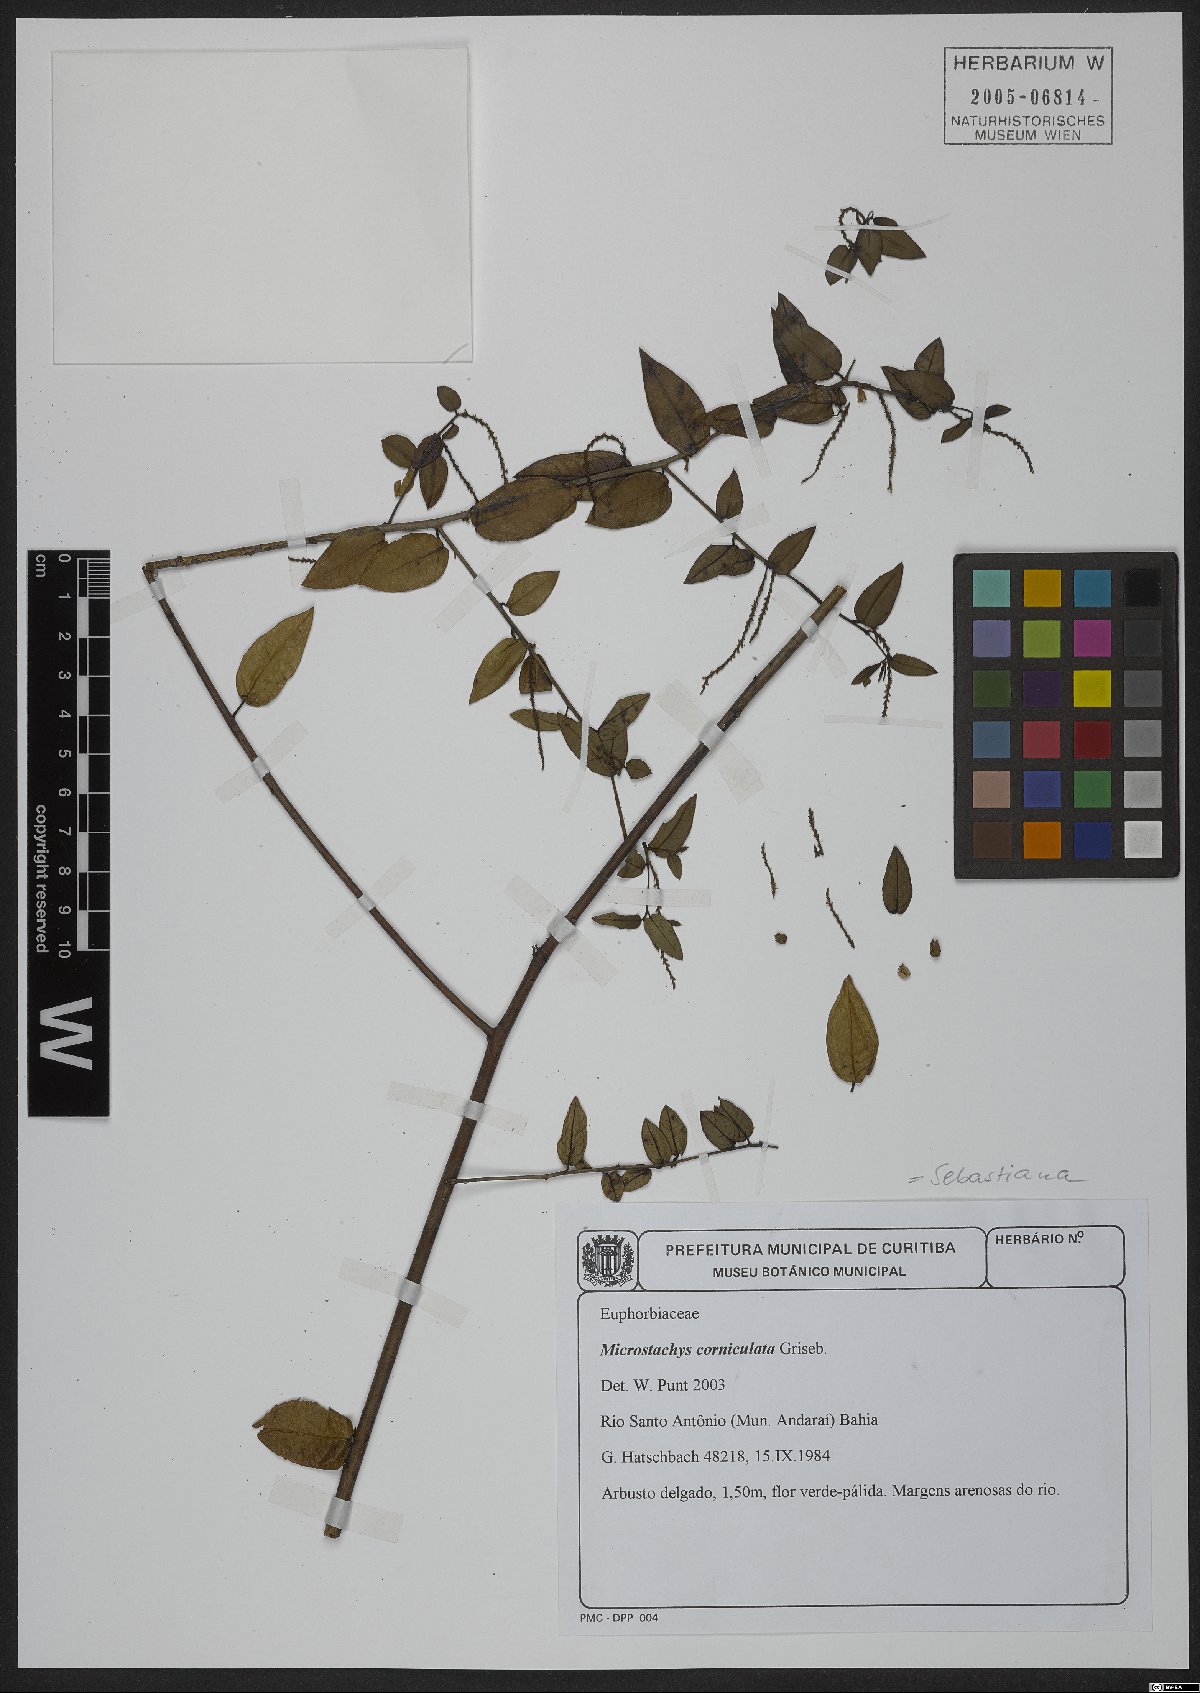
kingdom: Plantae
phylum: Tracheophyta
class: Magnoliopsida
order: Malpighiales
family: Euphorbiaceae
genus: Microstachys
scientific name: Microstachys corniculata
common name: Hato tejas
